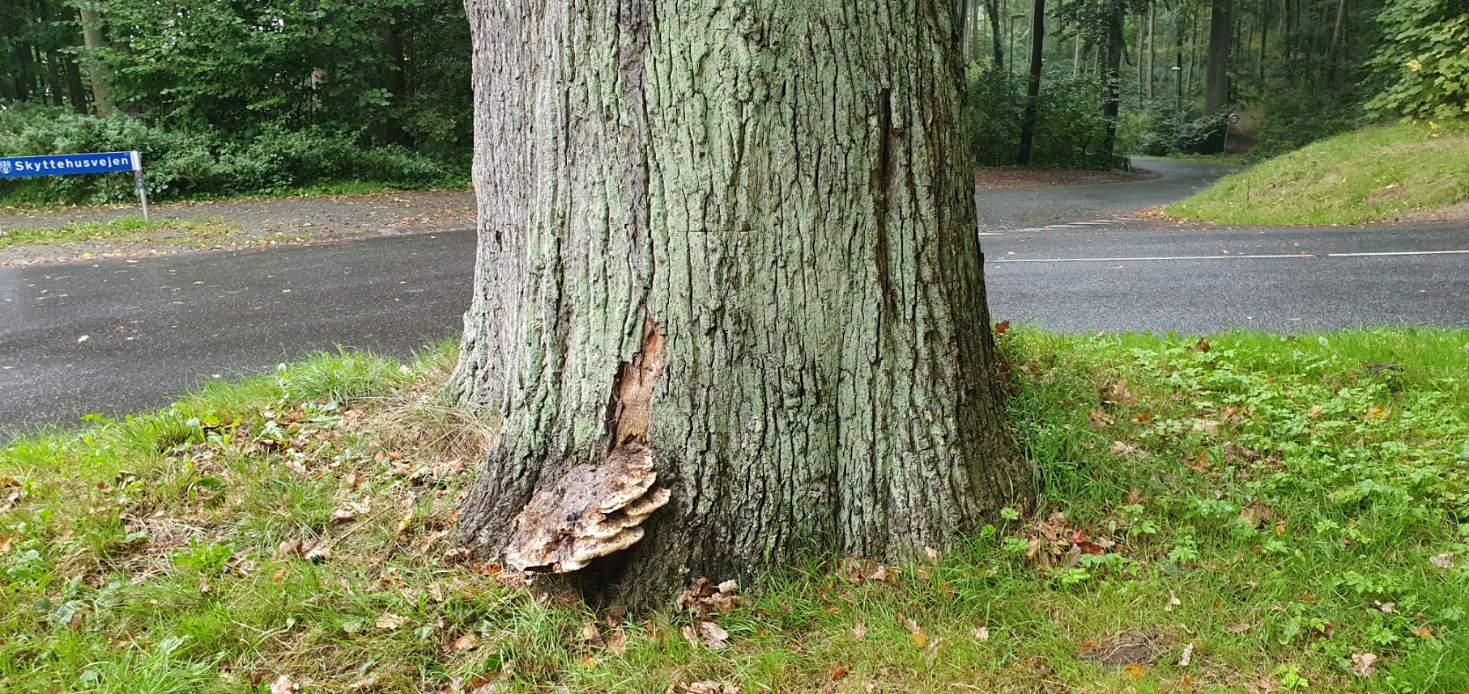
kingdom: Fungi
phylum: Basidiomycota
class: Agaricomycetes
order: Hymenochaetales
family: Hymenochaetaceae
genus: Pseudoinonotus
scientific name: Pseudoinonotus dryadeus
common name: ege-spejlporesvamp
